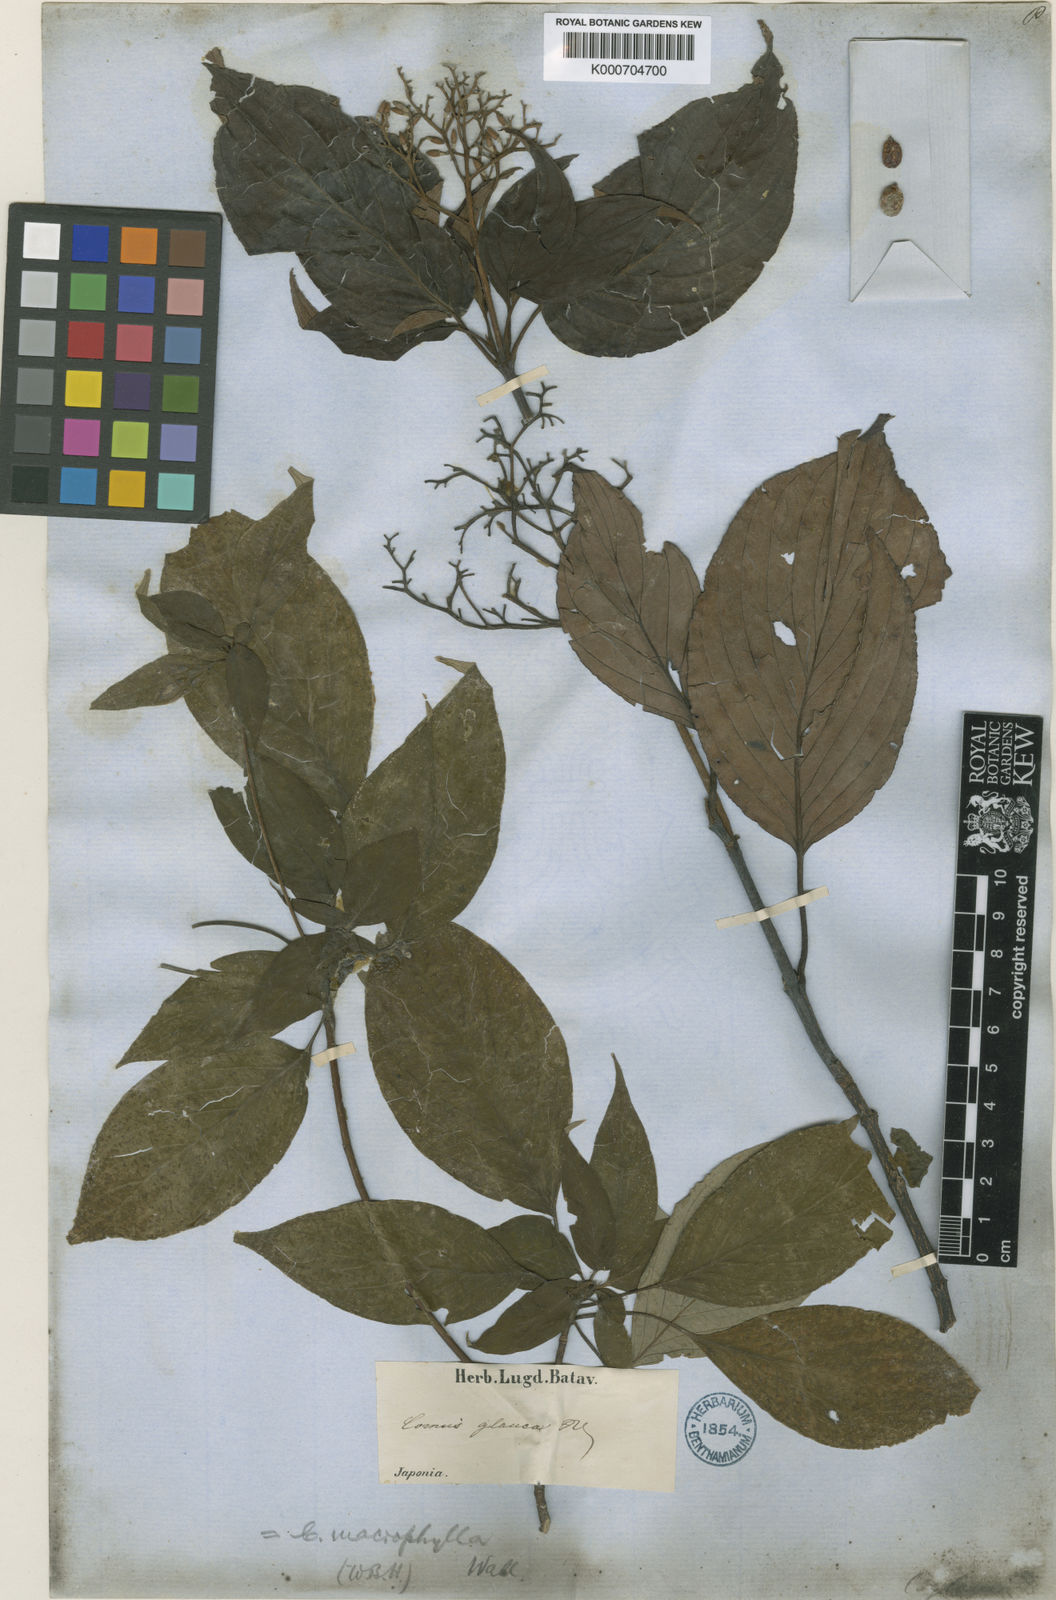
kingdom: Plantae
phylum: Tracheophyta
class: Magnoliopsida
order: Cornales
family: Cornaceae
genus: Cornus
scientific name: Cornus macrophylla
